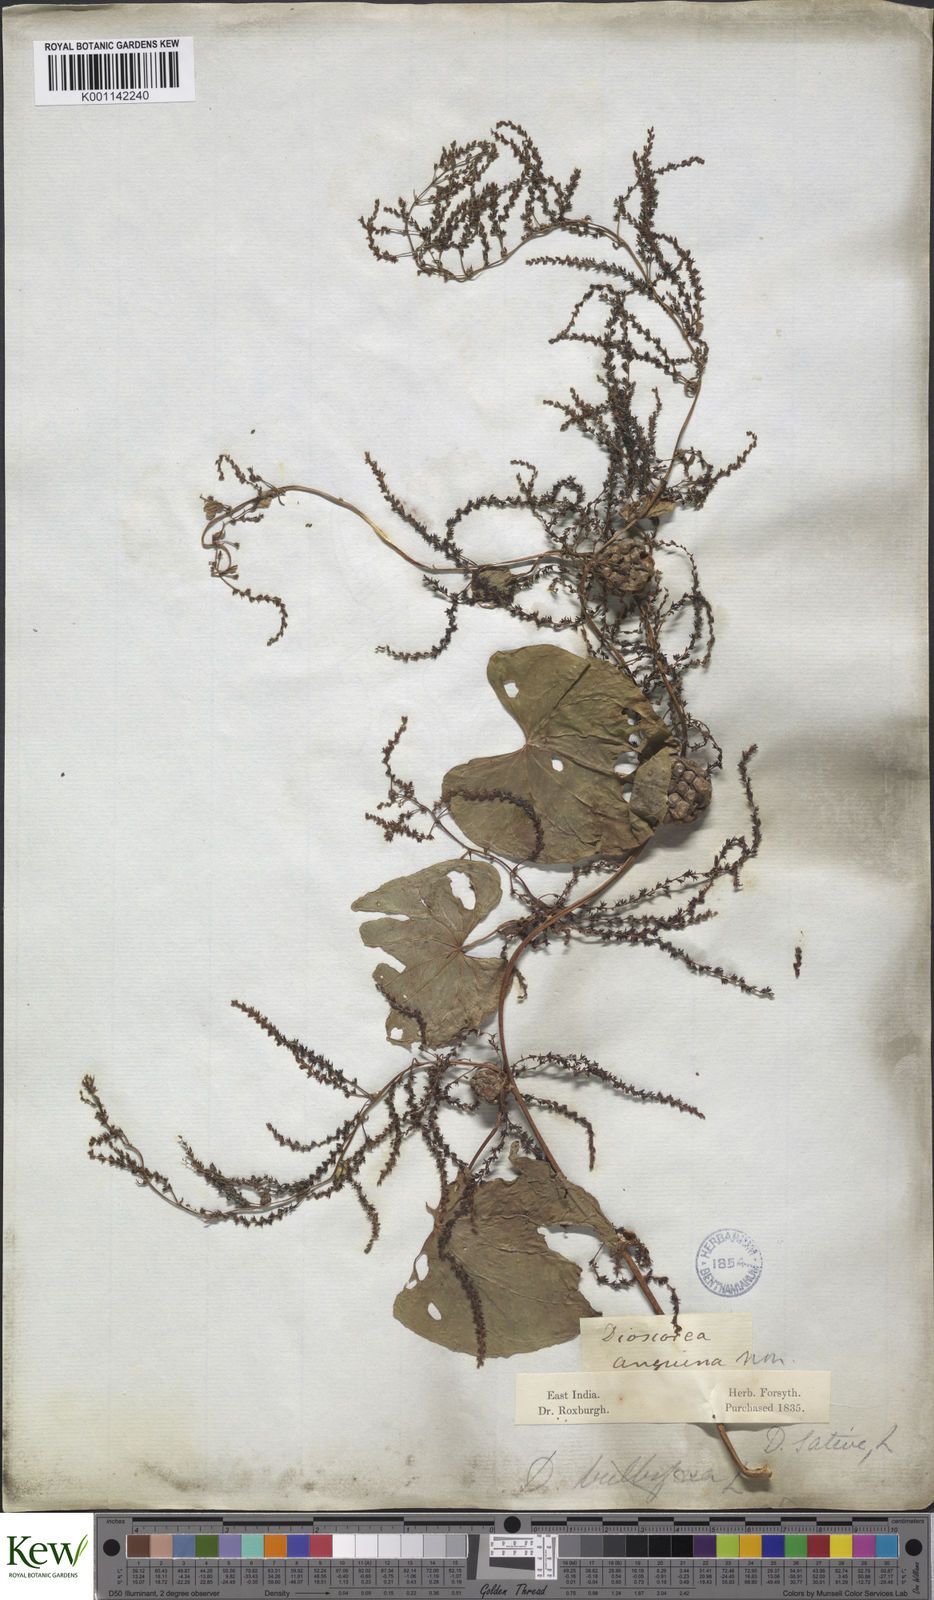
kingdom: Plantae
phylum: Tracheophyta
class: Liliopsida
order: Dioscoreales
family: Dioscoreaceae
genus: Dioscorea
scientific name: Dioscorea bulbifera
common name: Air yam
